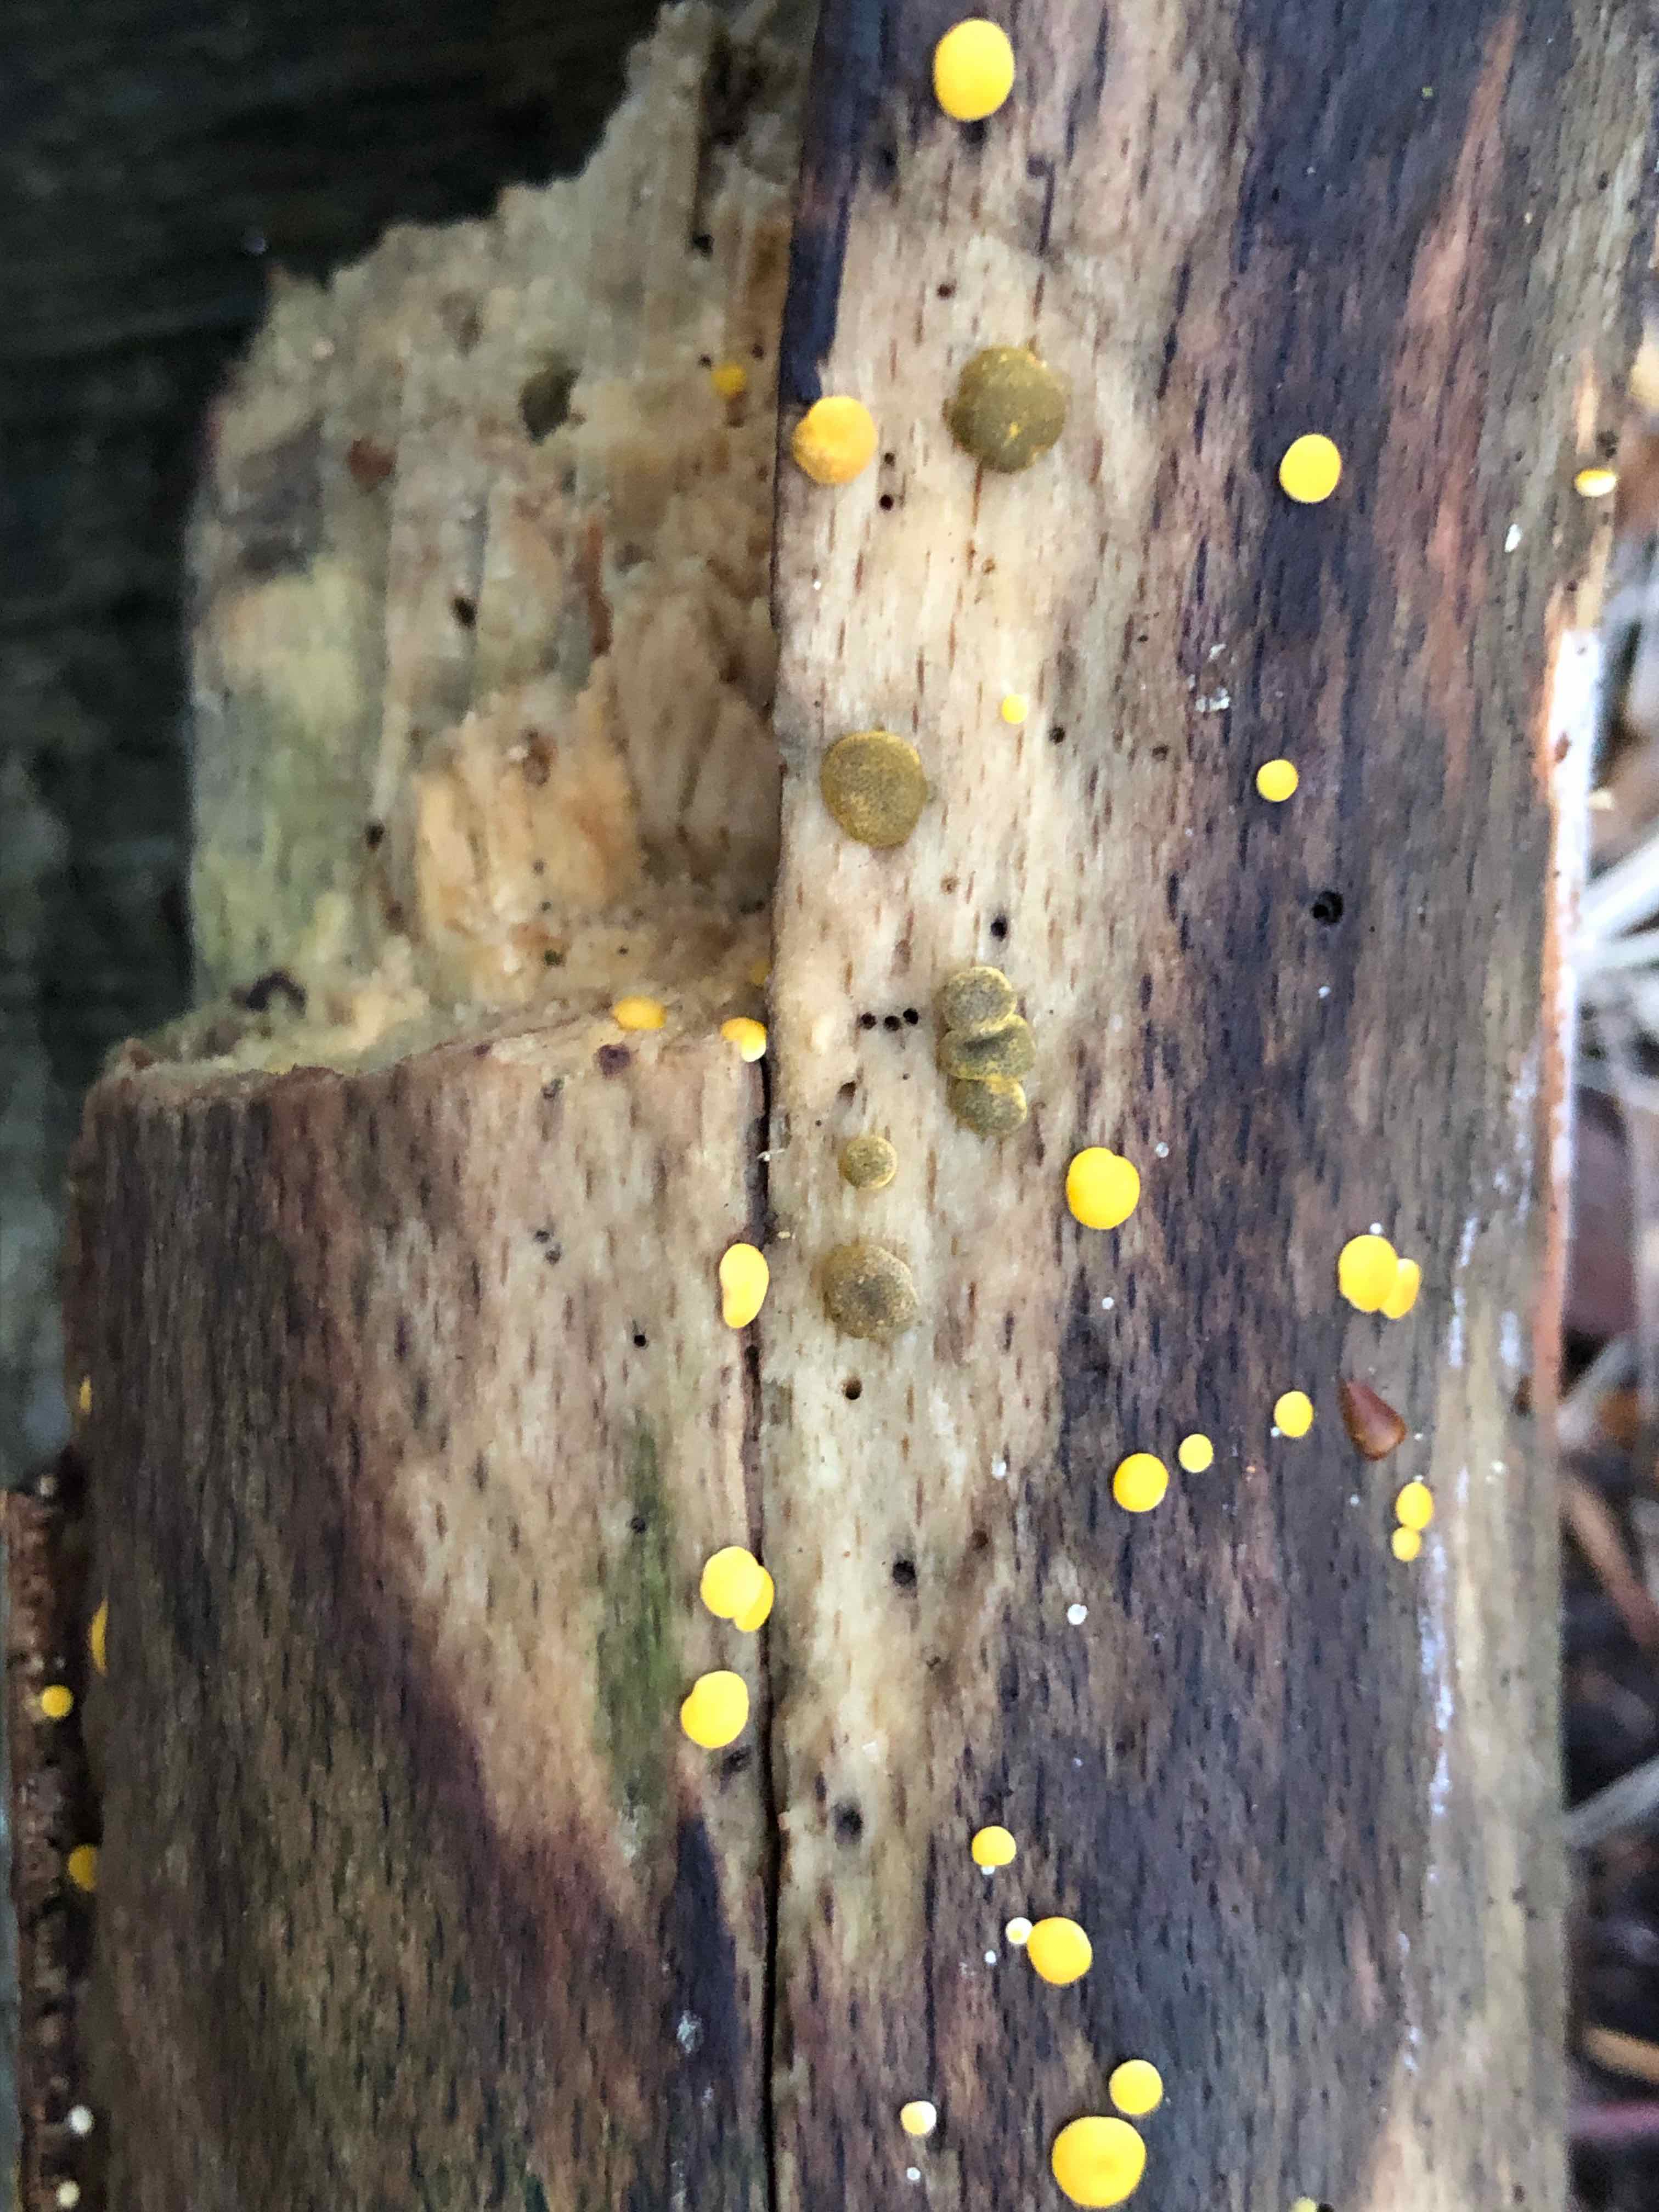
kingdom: Fungi
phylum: Ascomycota
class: Sordariomycetes
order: Hypocreales
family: Hypocreaceae
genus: Trichoderma
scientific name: Trichoderma aureoviride
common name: æggegul kødkerne
